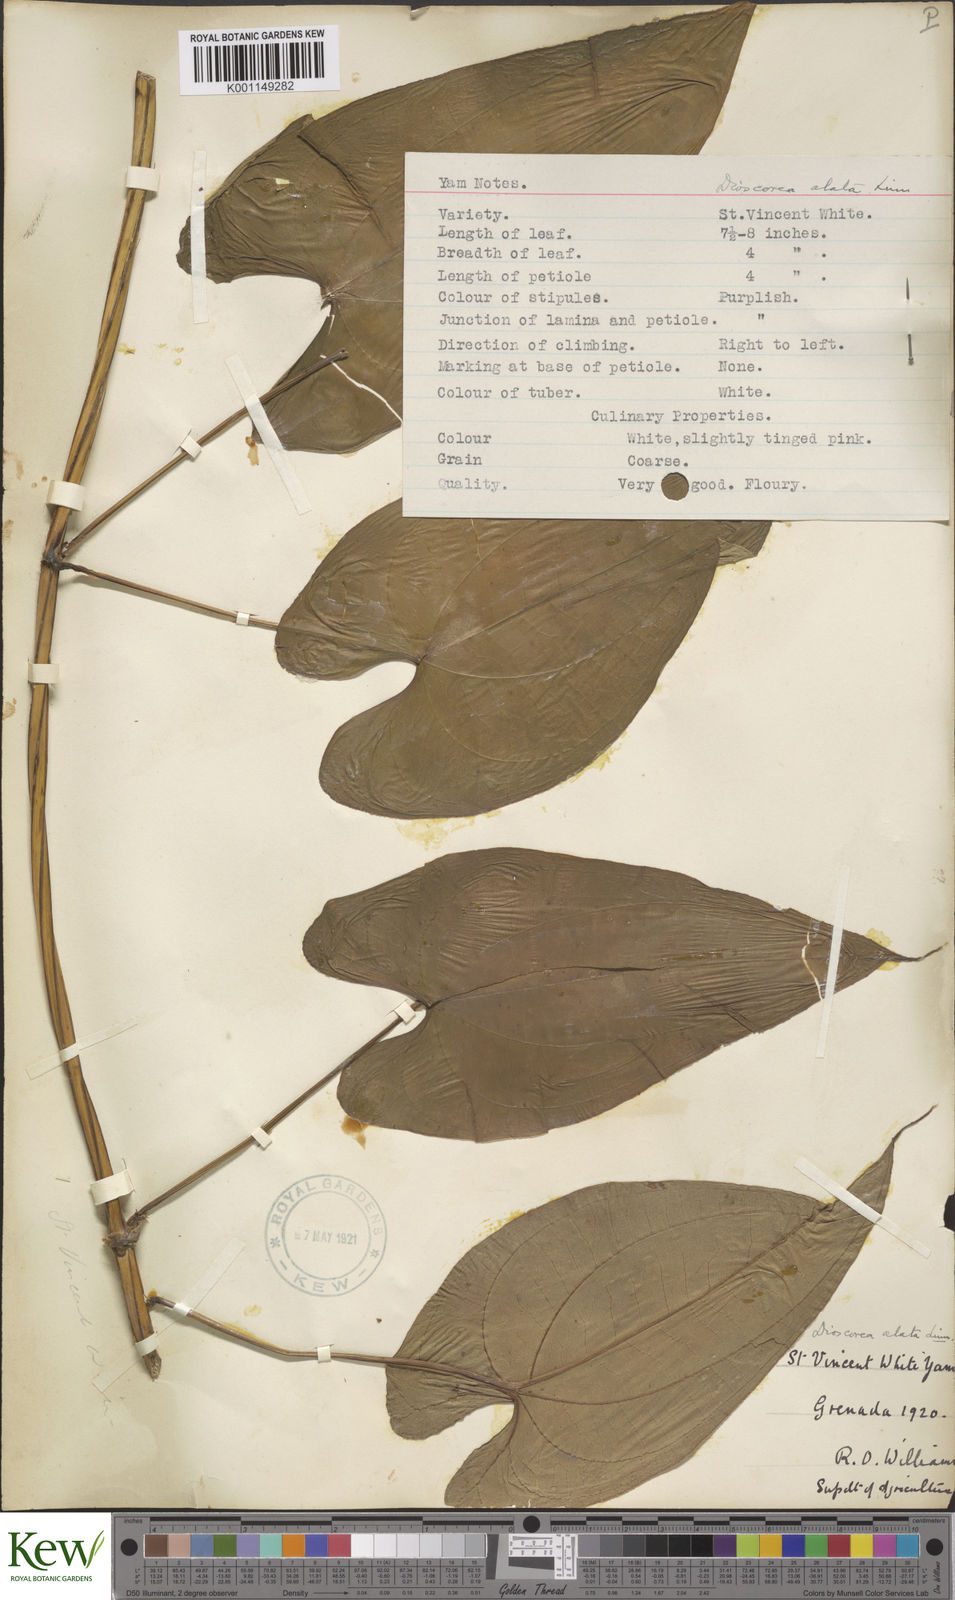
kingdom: Plantae
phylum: Tracheophyta
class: Liliopsida
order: Dioscoreales
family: Dioscoreaceae
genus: Dioscorea
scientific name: Dioscorea alata
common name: Water yam
